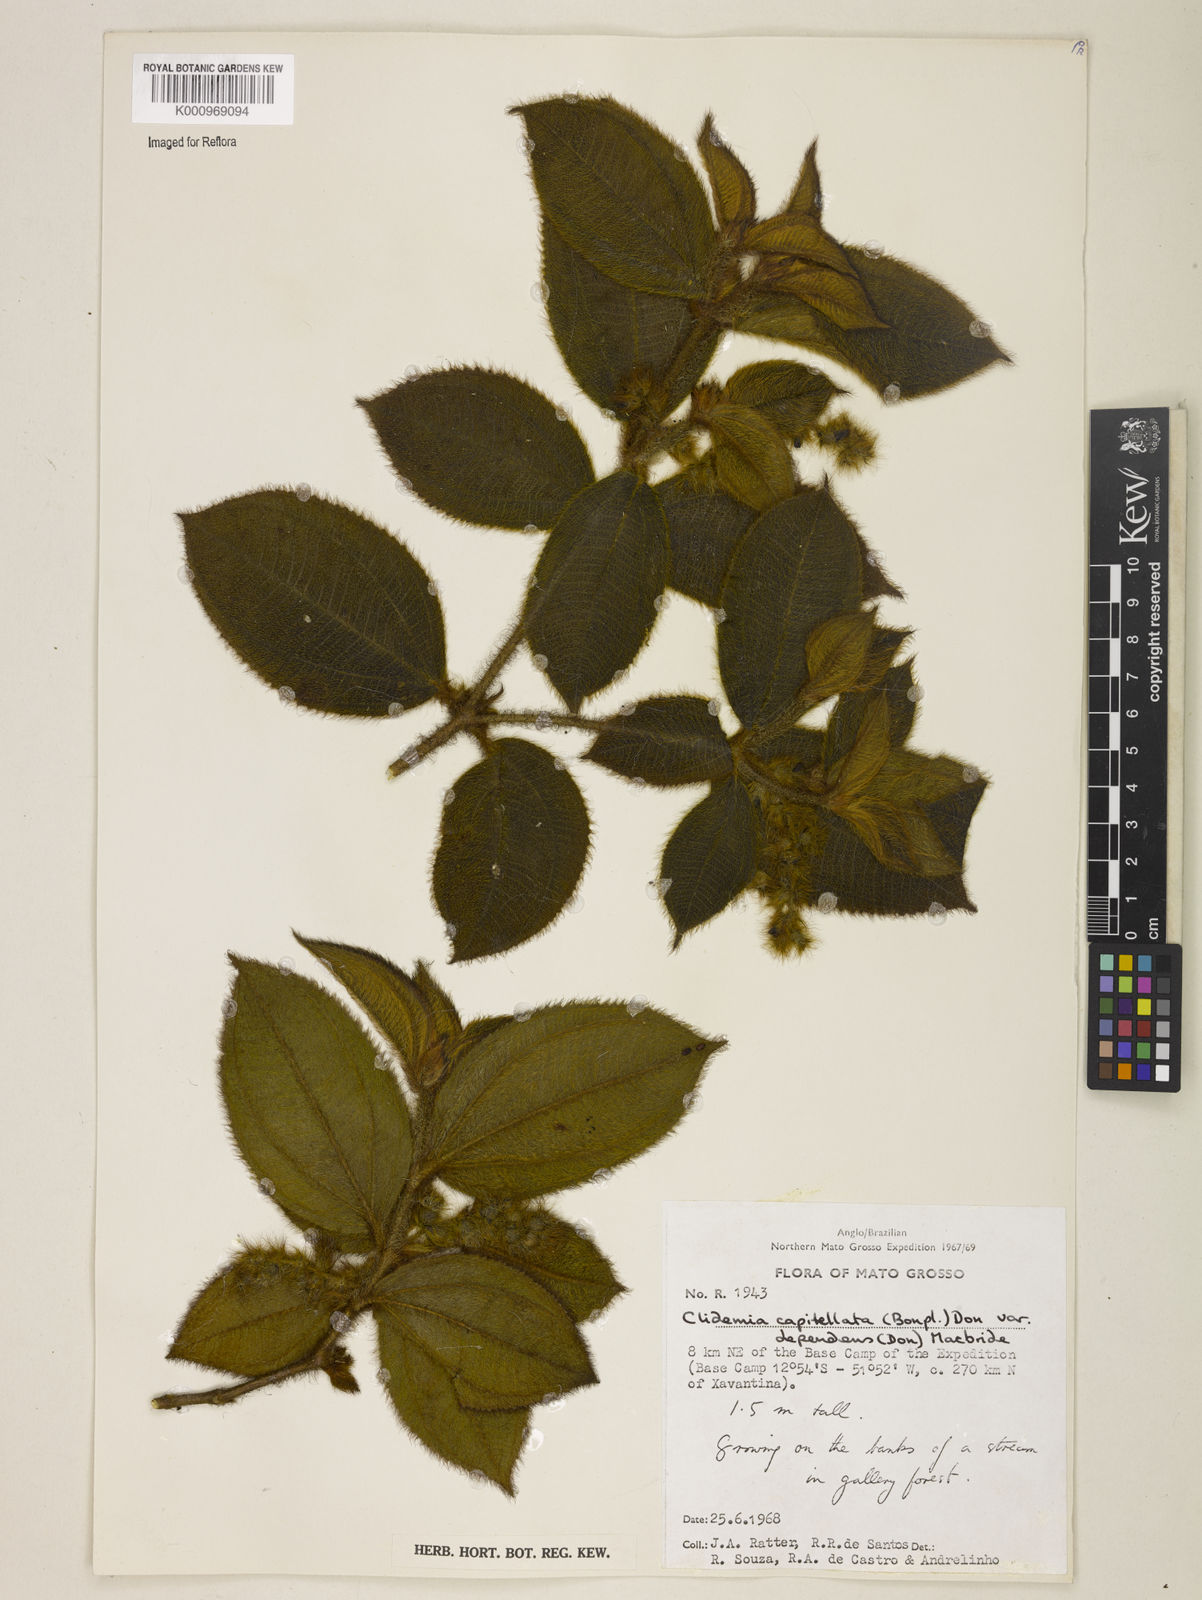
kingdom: Plantae
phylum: Tracheophyta
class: Magnoliopsida
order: Myrtales
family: Melastomataceae
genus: Miconia
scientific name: Miconia dependens
